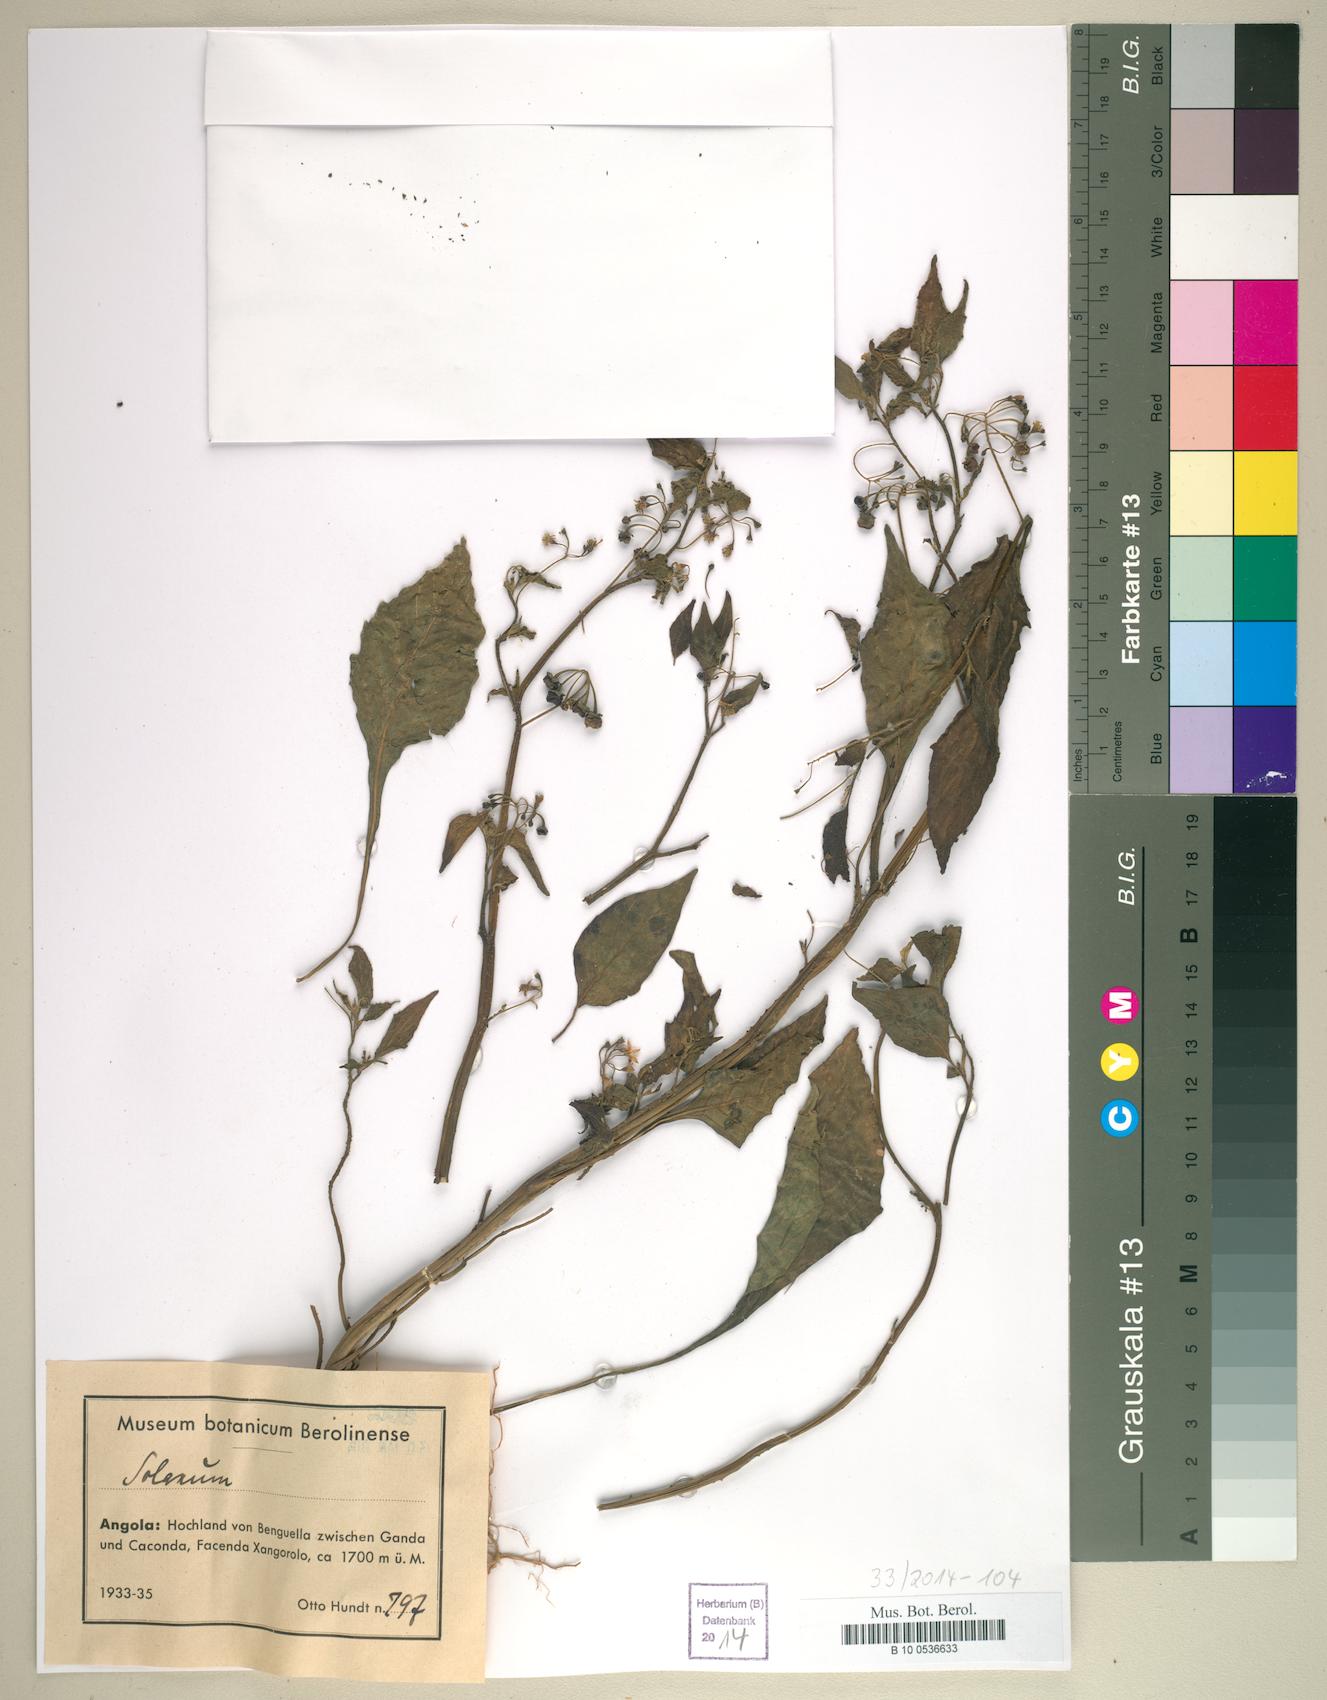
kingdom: Plantae
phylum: Tracheophyta
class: Magnoliopsida
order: Solanales
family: Solanaceae
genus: Solanum
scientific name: Solanum
